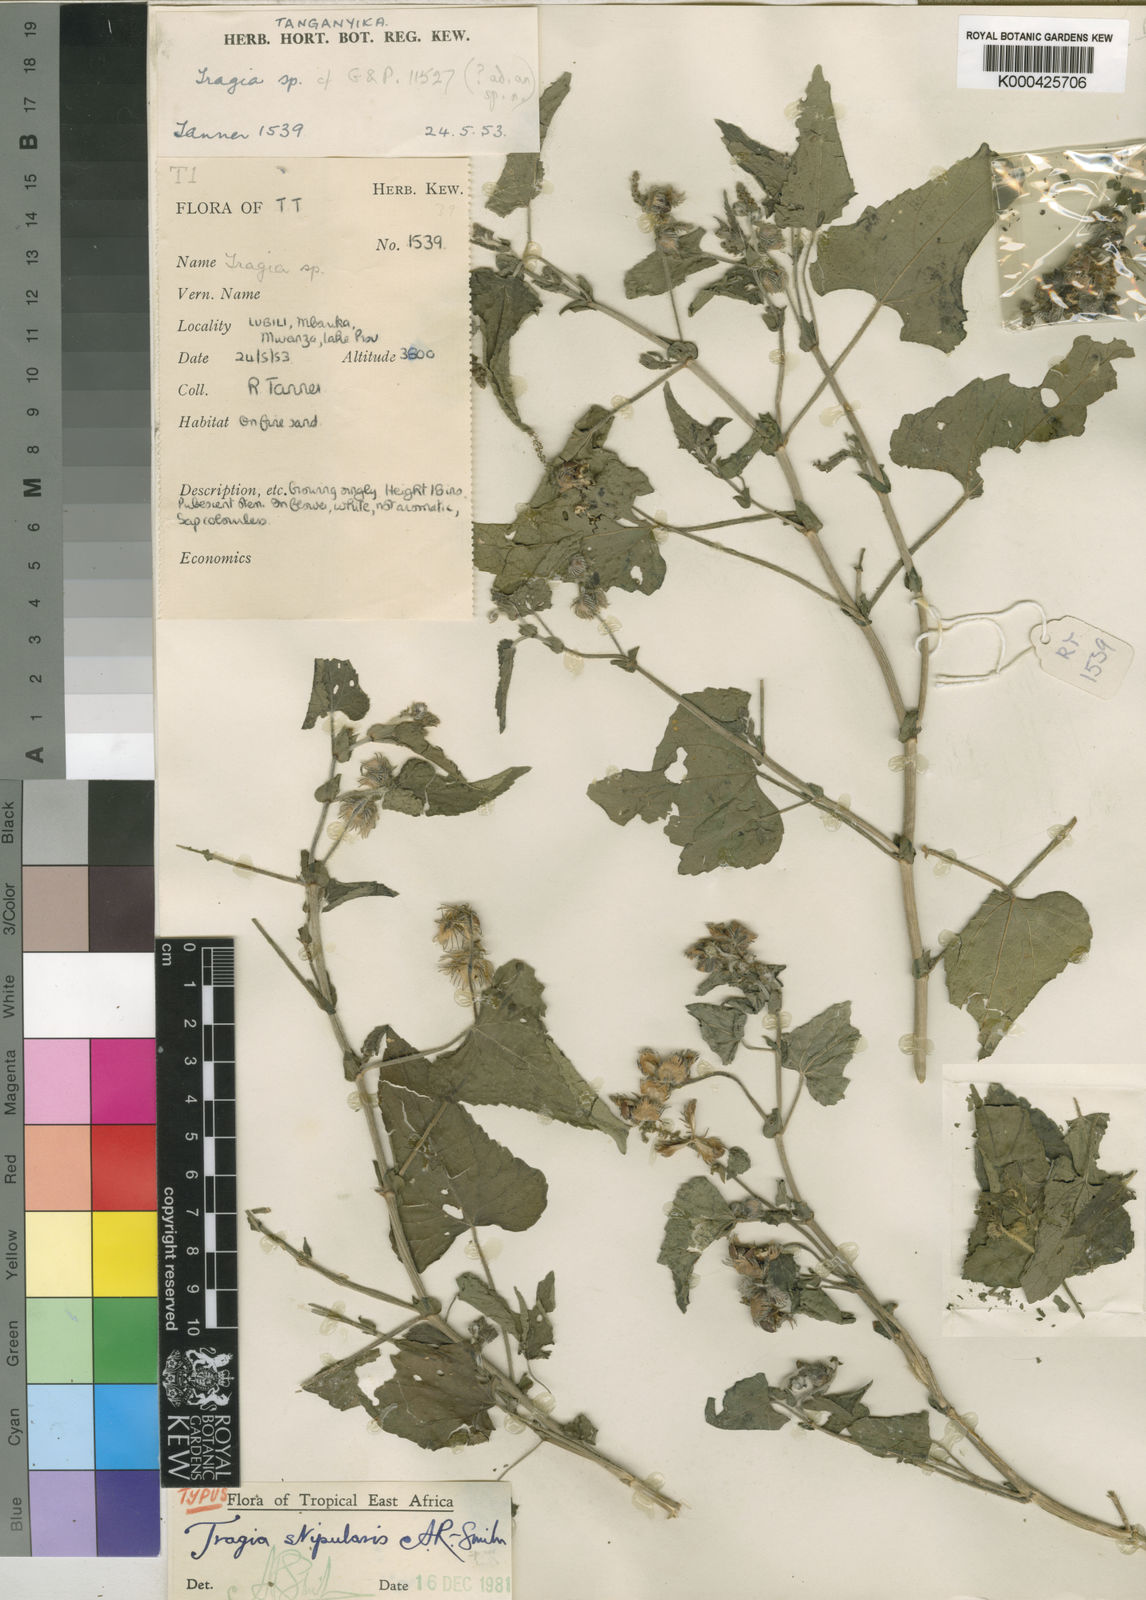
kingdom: Plantae
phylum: Tracheophyta
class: Magnoliopsida
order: Malpighiales
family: Euphorbiaceae
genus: Tragia
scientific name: Tragia stipularis
